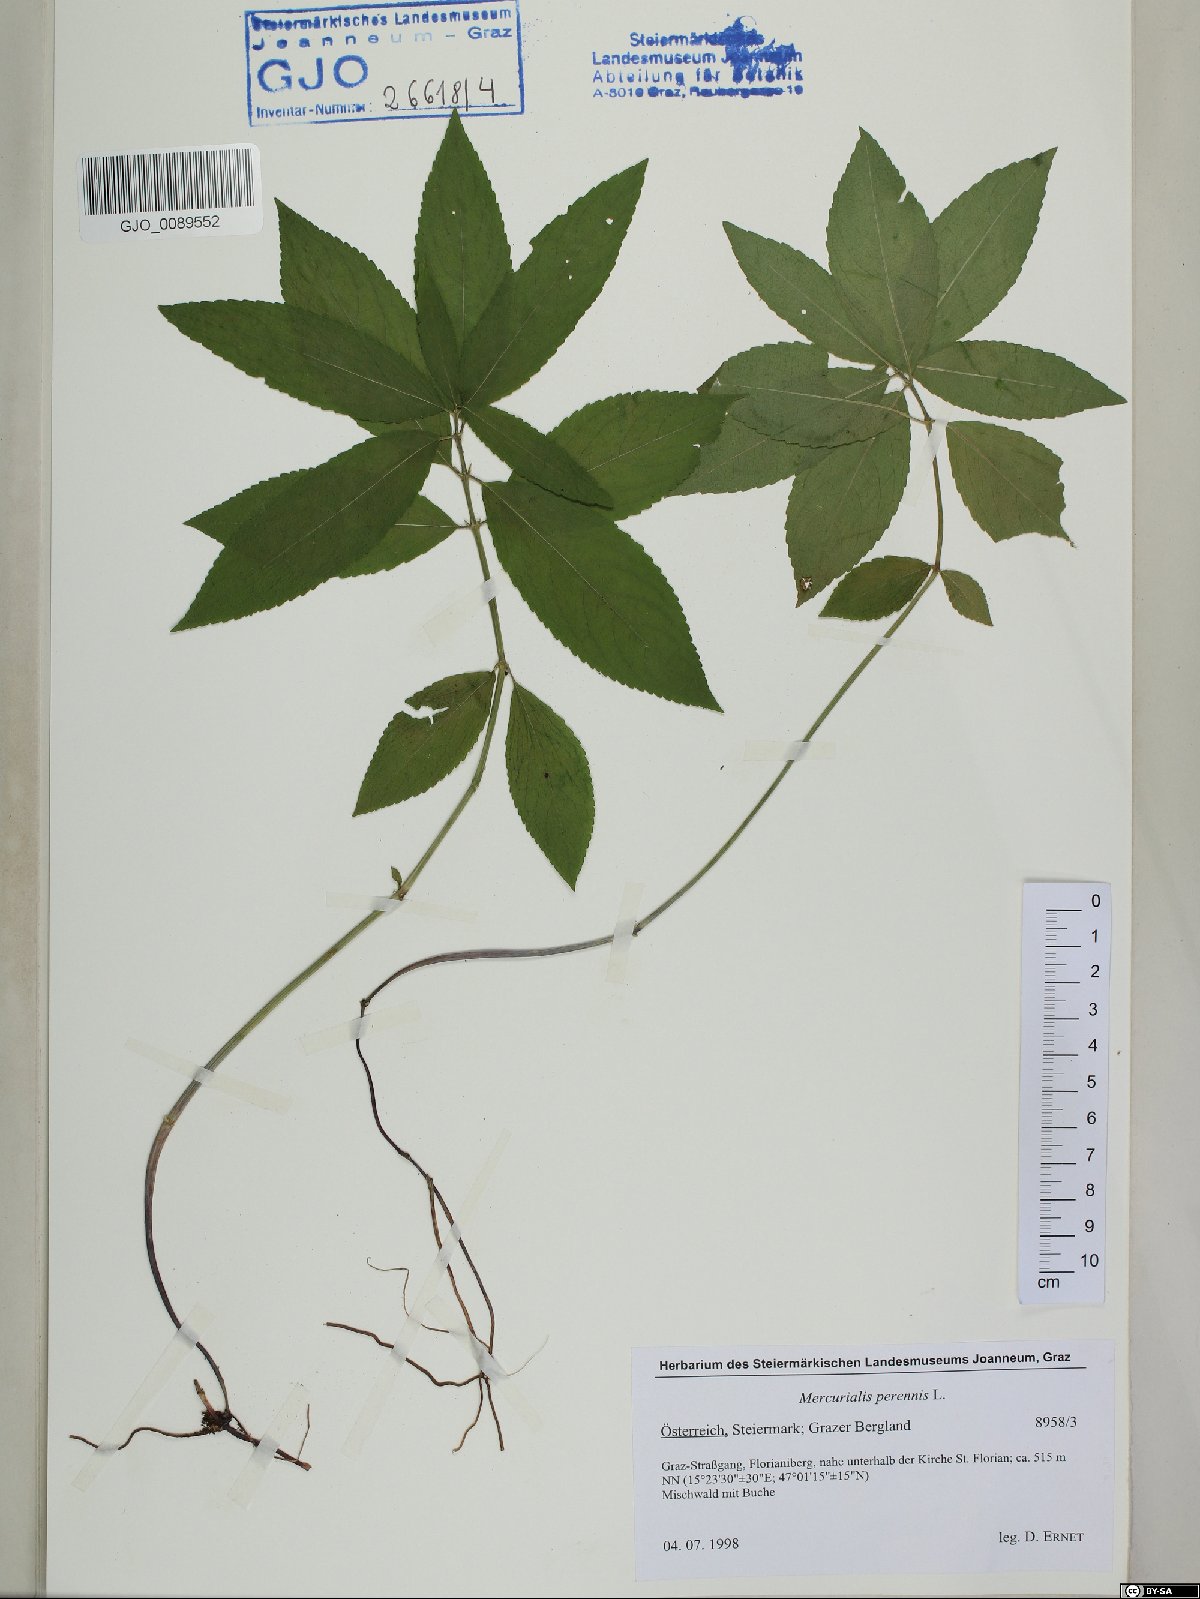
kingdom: Plantae
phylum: Tracheophyta
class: Magnoliopsida
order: Malpighiales
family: Euphorbiaceae
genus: Mercurialis
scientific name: Mercurialis perennis
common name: Dog mercury
